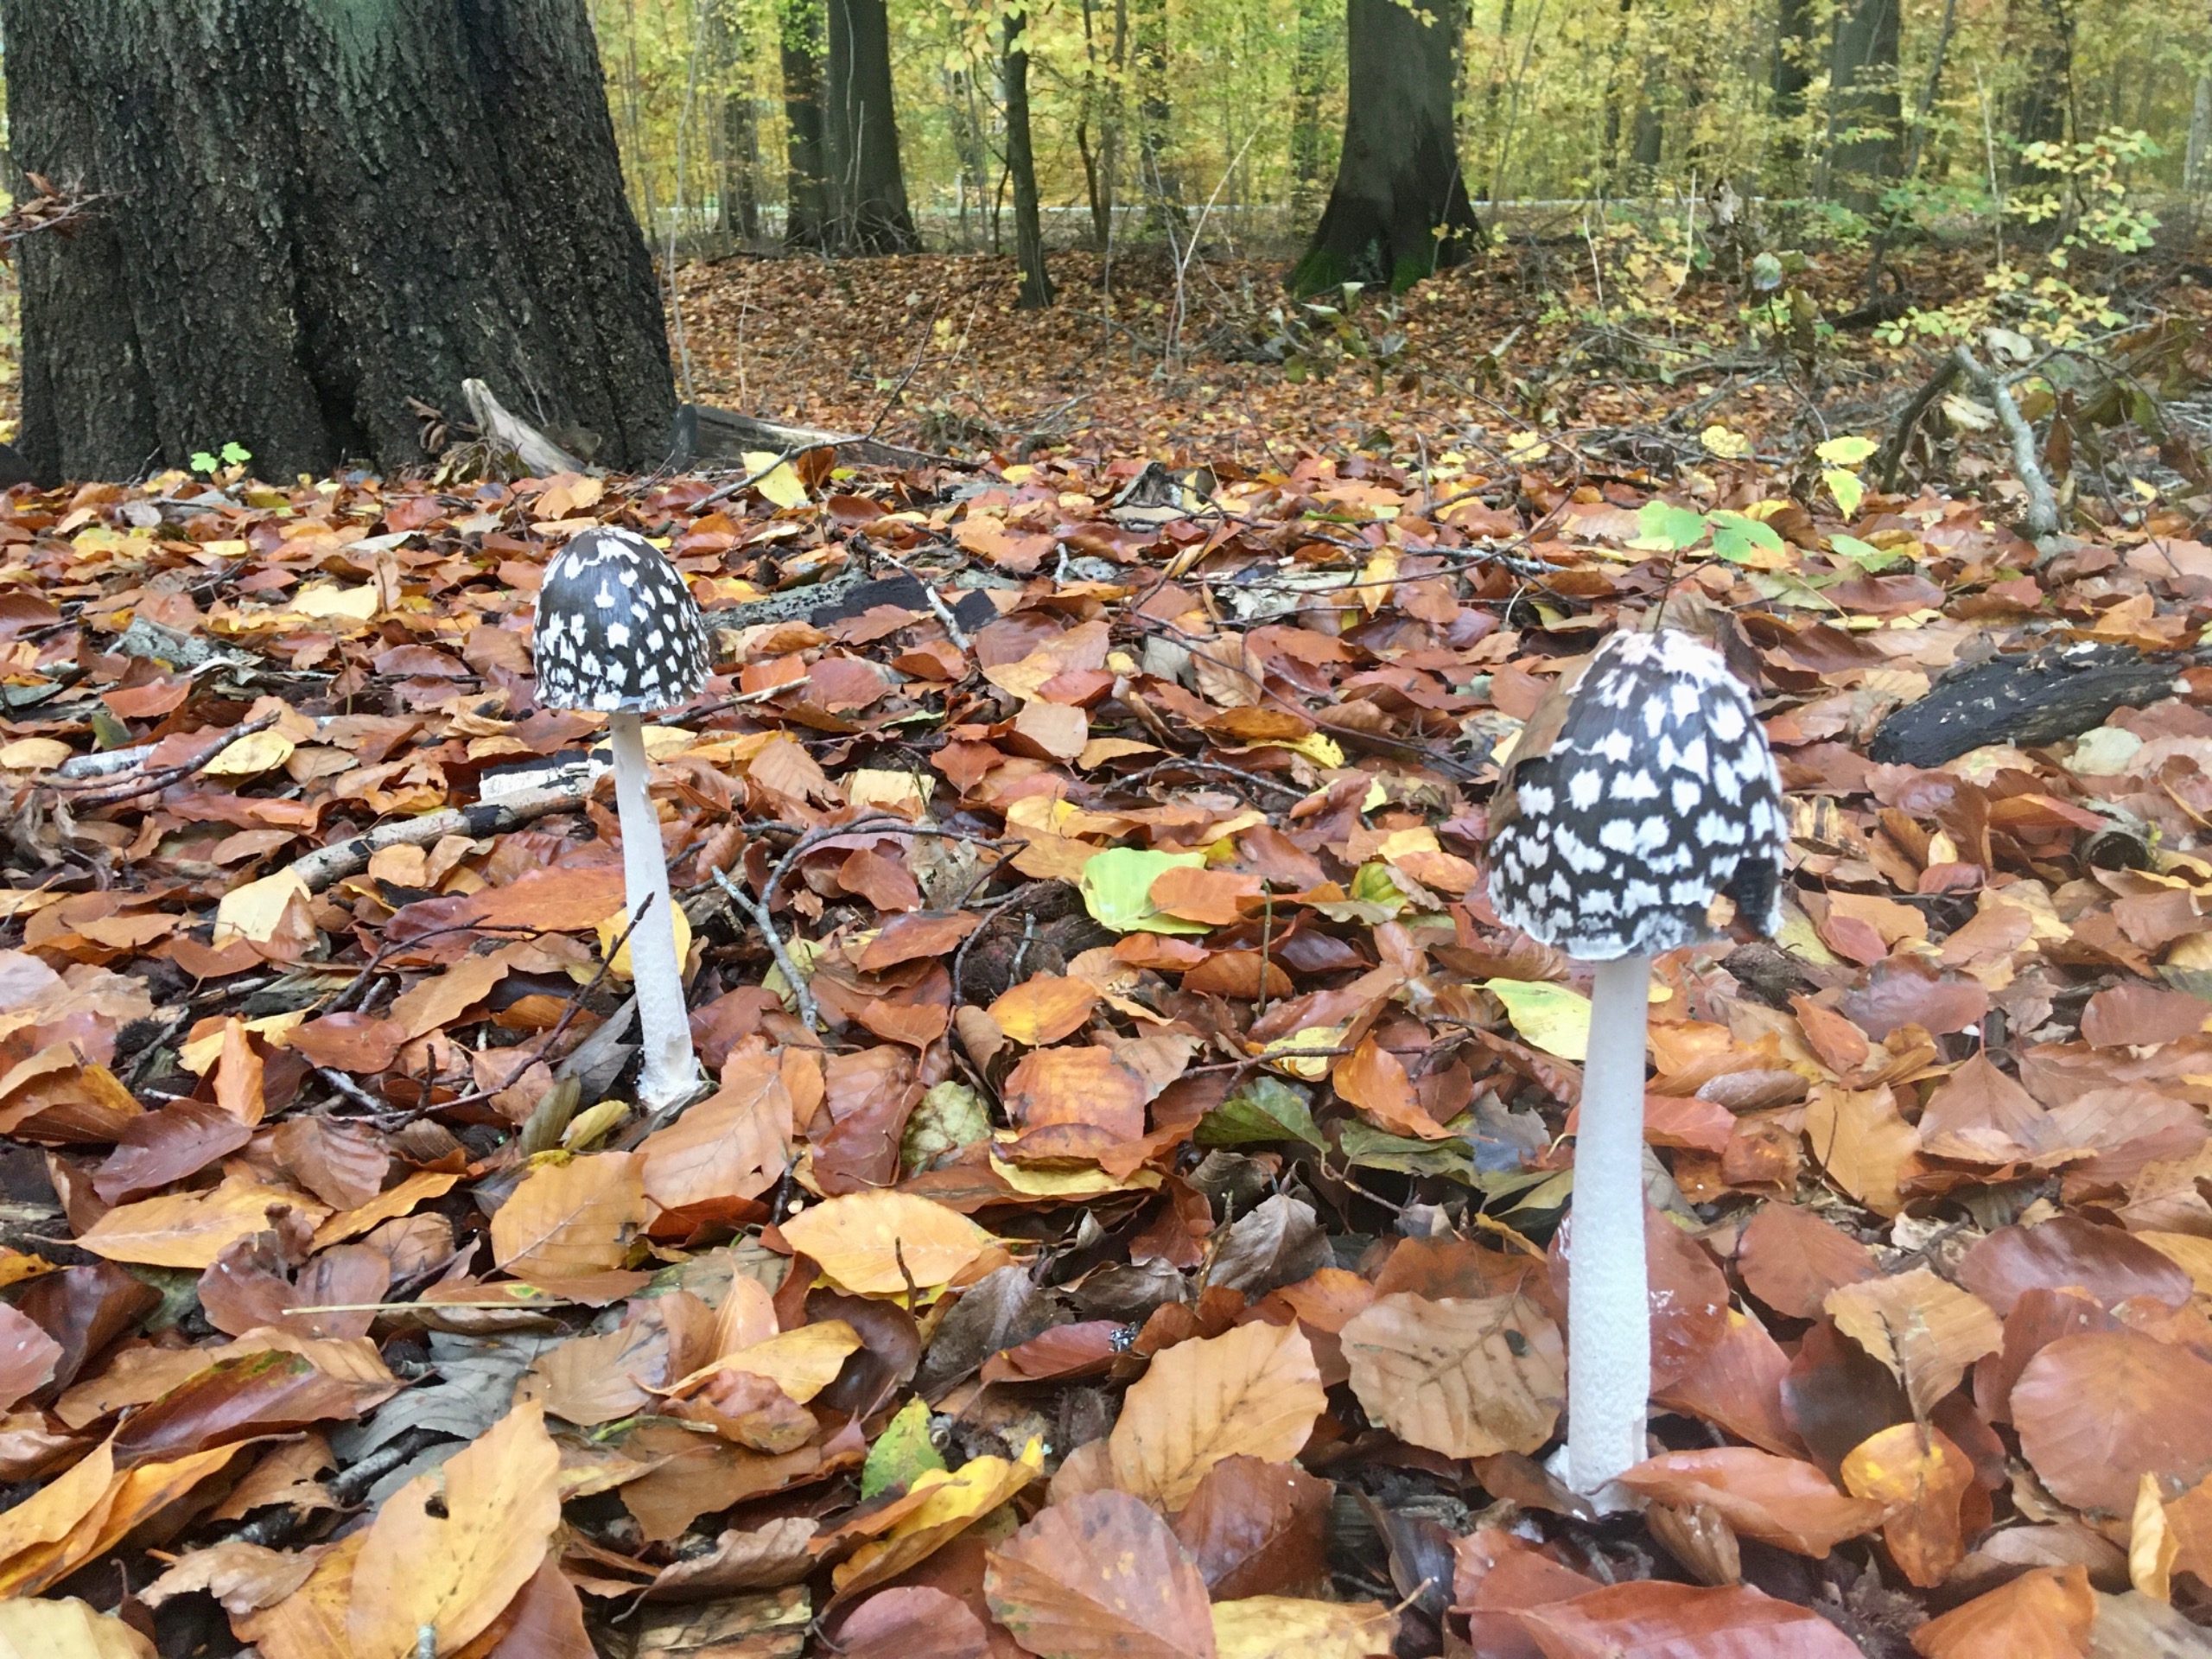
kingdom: Fungi
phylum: Basidiomycota
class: Agaricomycetes
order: Agaricales
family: Psathyrellaceae
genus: Coprinopsis
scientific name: Coprinopsis picacea
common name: Skade-blækhat
